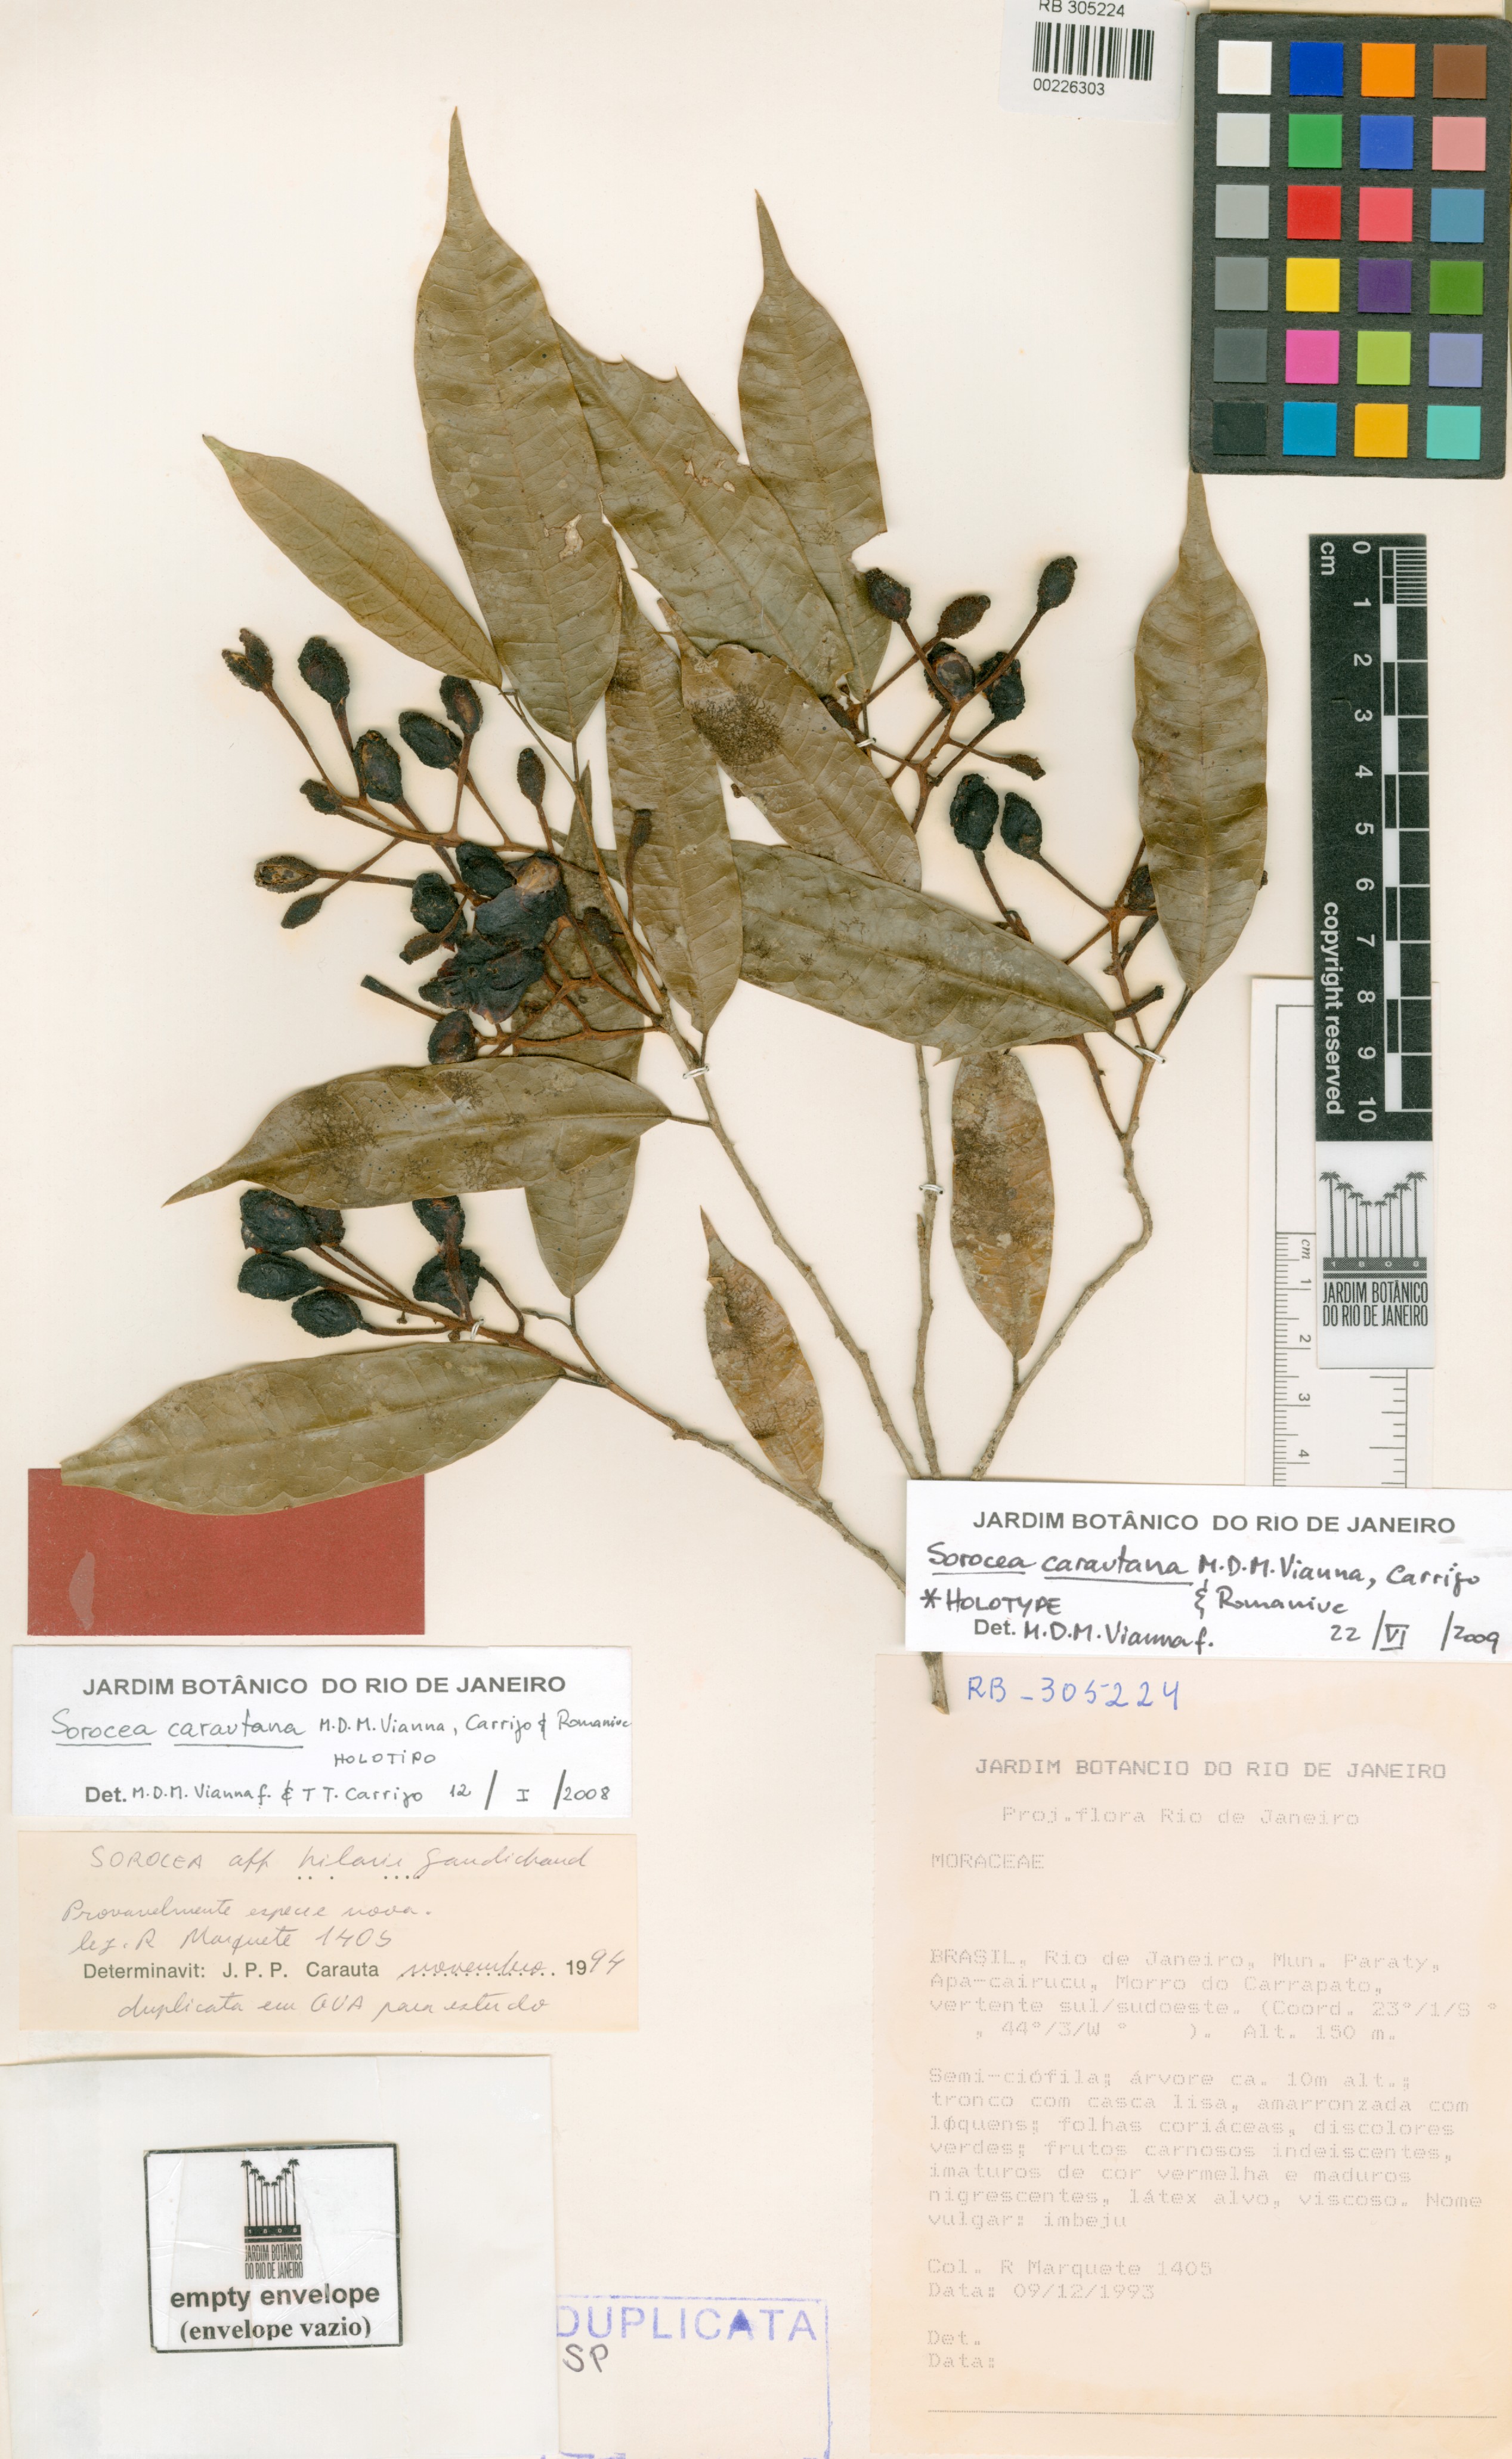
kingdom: Plantae
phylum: Tracheophyta
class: Magnoliopsida
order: Rosales
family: Moraceae
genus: Sorocea
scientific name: Sorocea carautana
